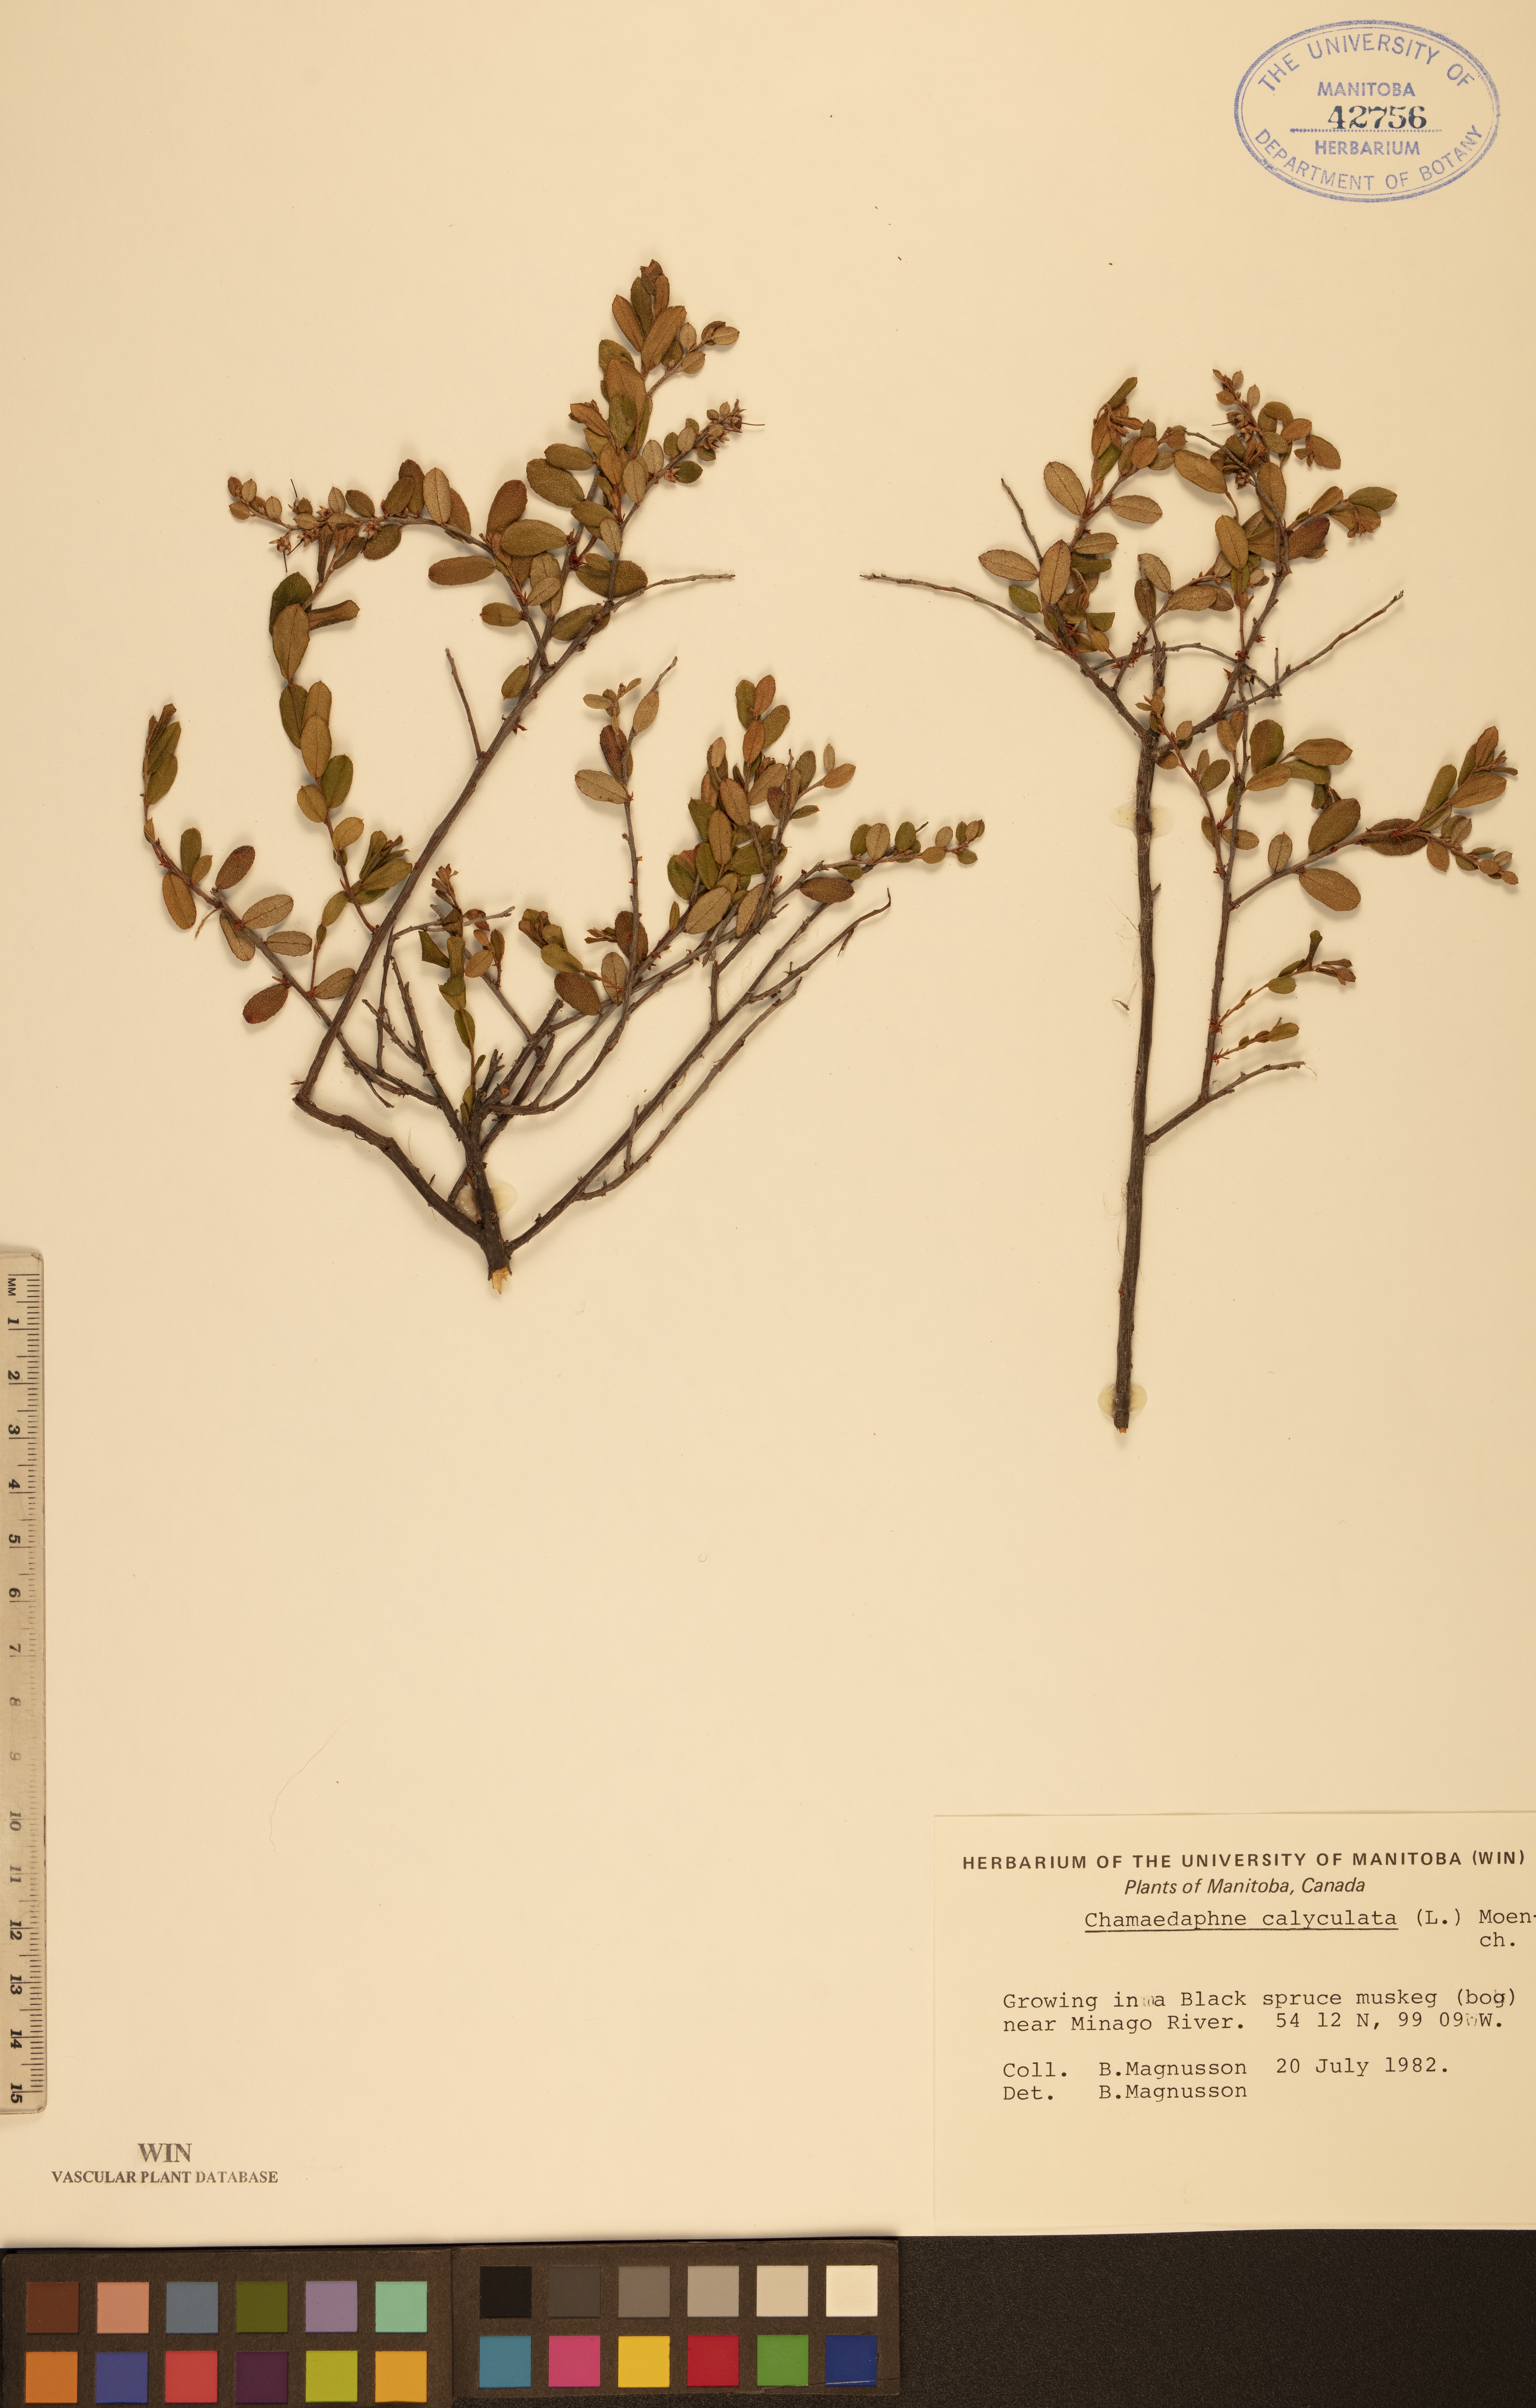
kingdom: Plantae
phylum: Tracheophyta
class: Magnoliopsida
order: Ericales
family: Ericaceae
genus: Chamaedaphne
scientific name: Chamaedaphne calyculata
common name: Leatherleaf
